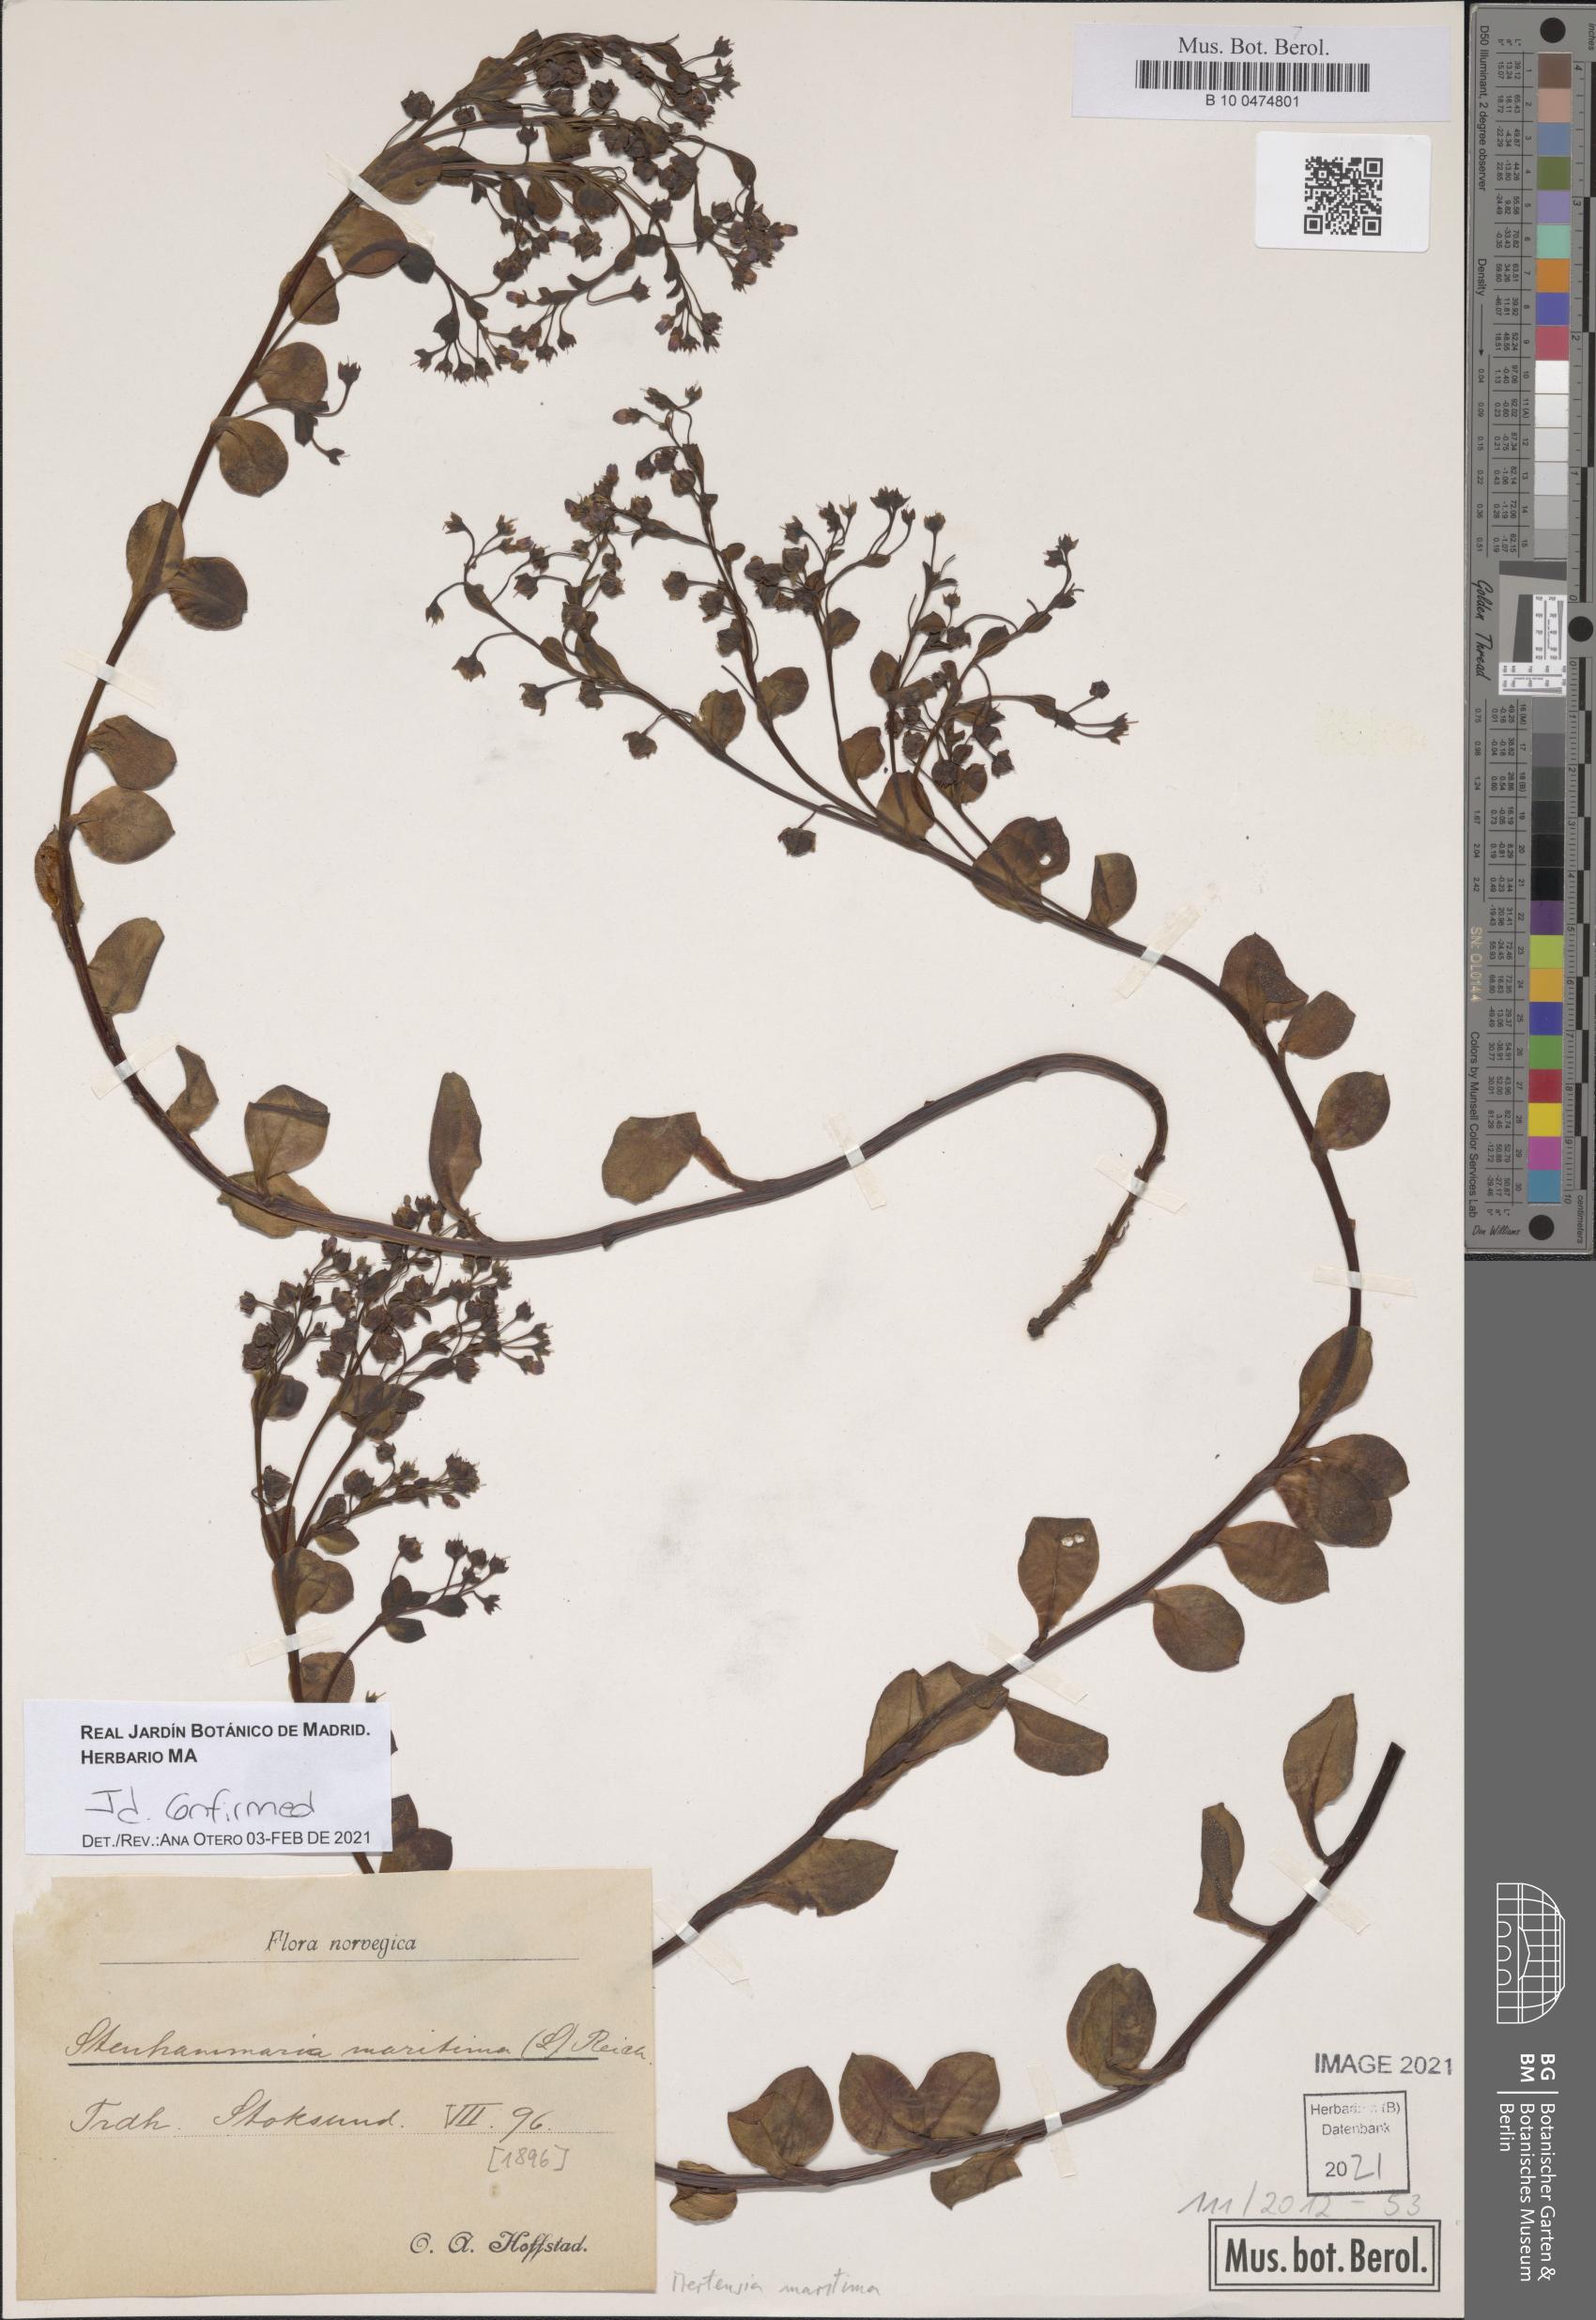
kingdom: Plantae
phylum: Tracheophyta
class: Magnoliopsida
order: Boraginales
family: Boraginaceae
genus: Mertensia
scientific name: Mertensia maritima
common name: Oysterplant
